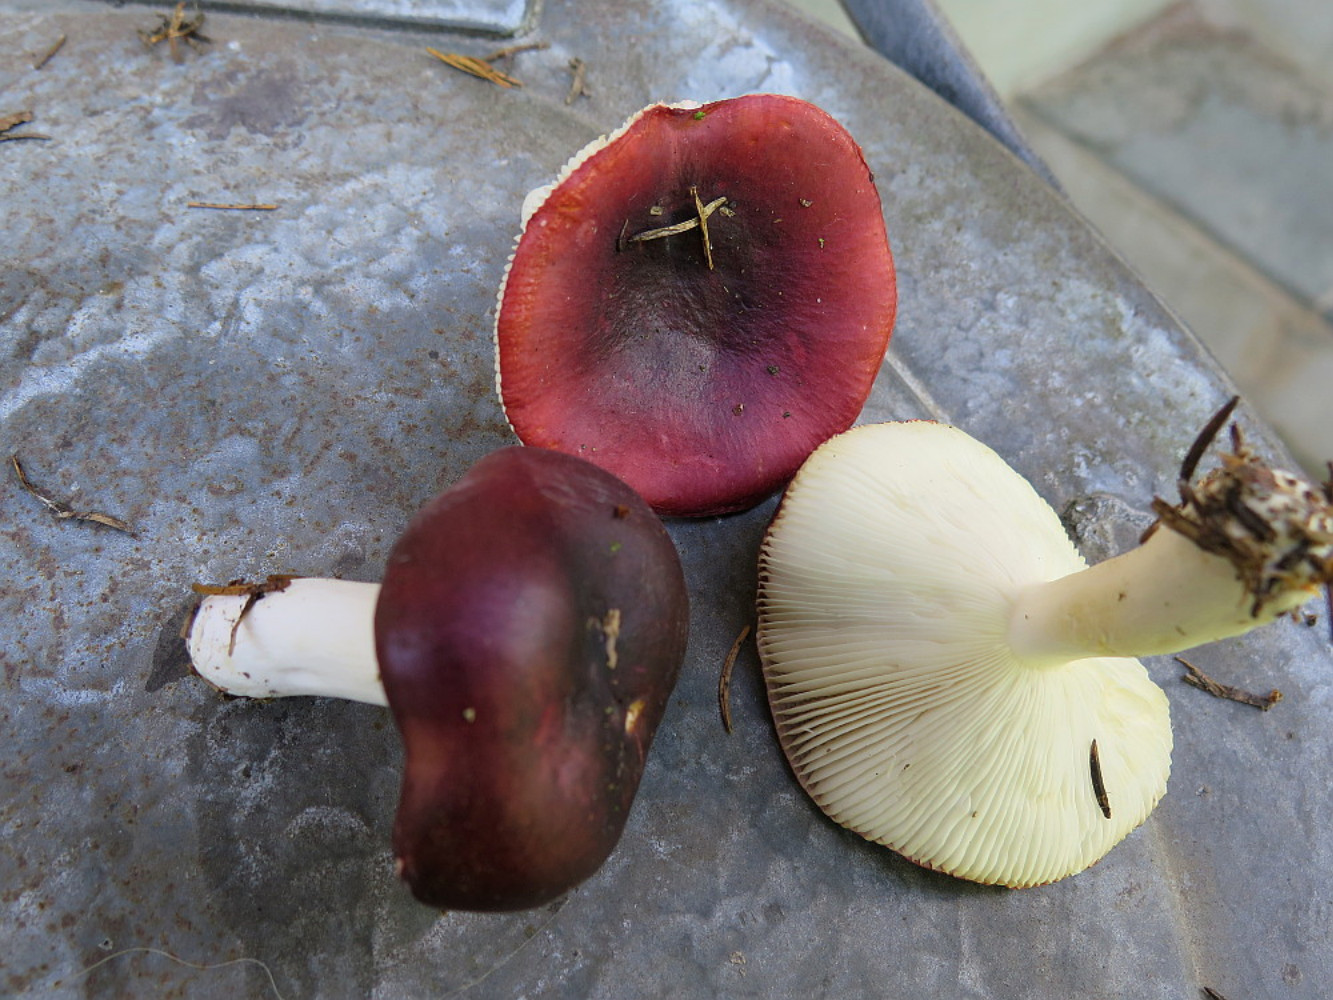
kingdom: Fungi
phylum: Basidiomycota
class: Agaricomycetes
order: Russulales
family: Russulaceae
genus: Russula
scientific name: Russula atrorubens
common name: sortrød skørhat
